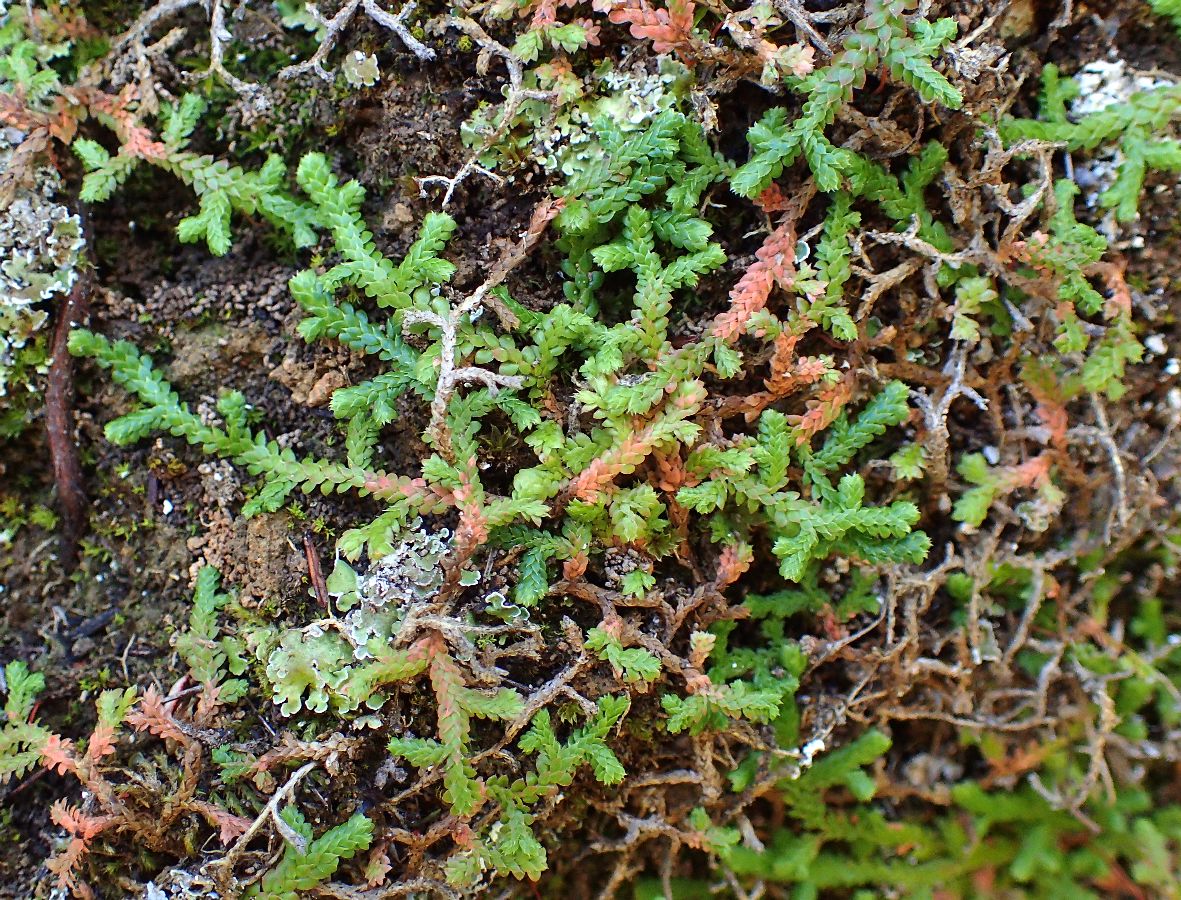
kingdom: Plantae
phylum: Tracheophyta
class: Lycopodiopsida
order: Selaginellales
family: Selaginellaceae
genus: Selaginella
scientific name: Selaginella denticulata
